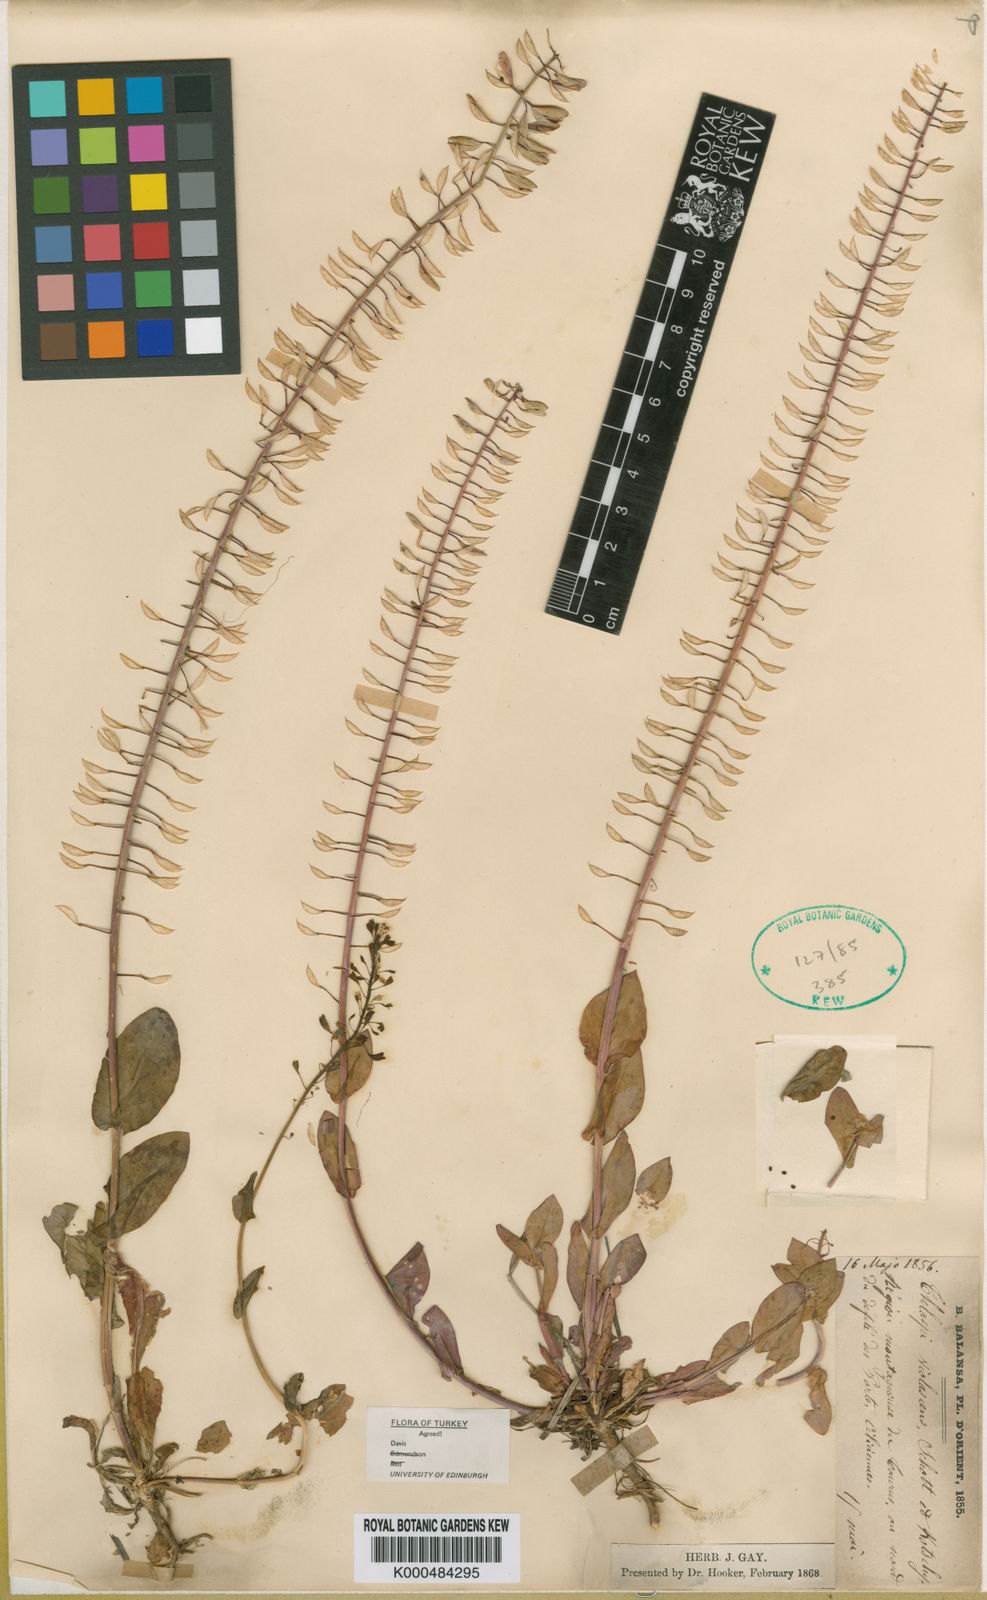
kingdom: Plantae
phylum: Tracheophyta
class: Magnoliopsida
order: Brassicales
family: Brassicaceae
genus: Thlaspi
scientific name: Thlaspi
